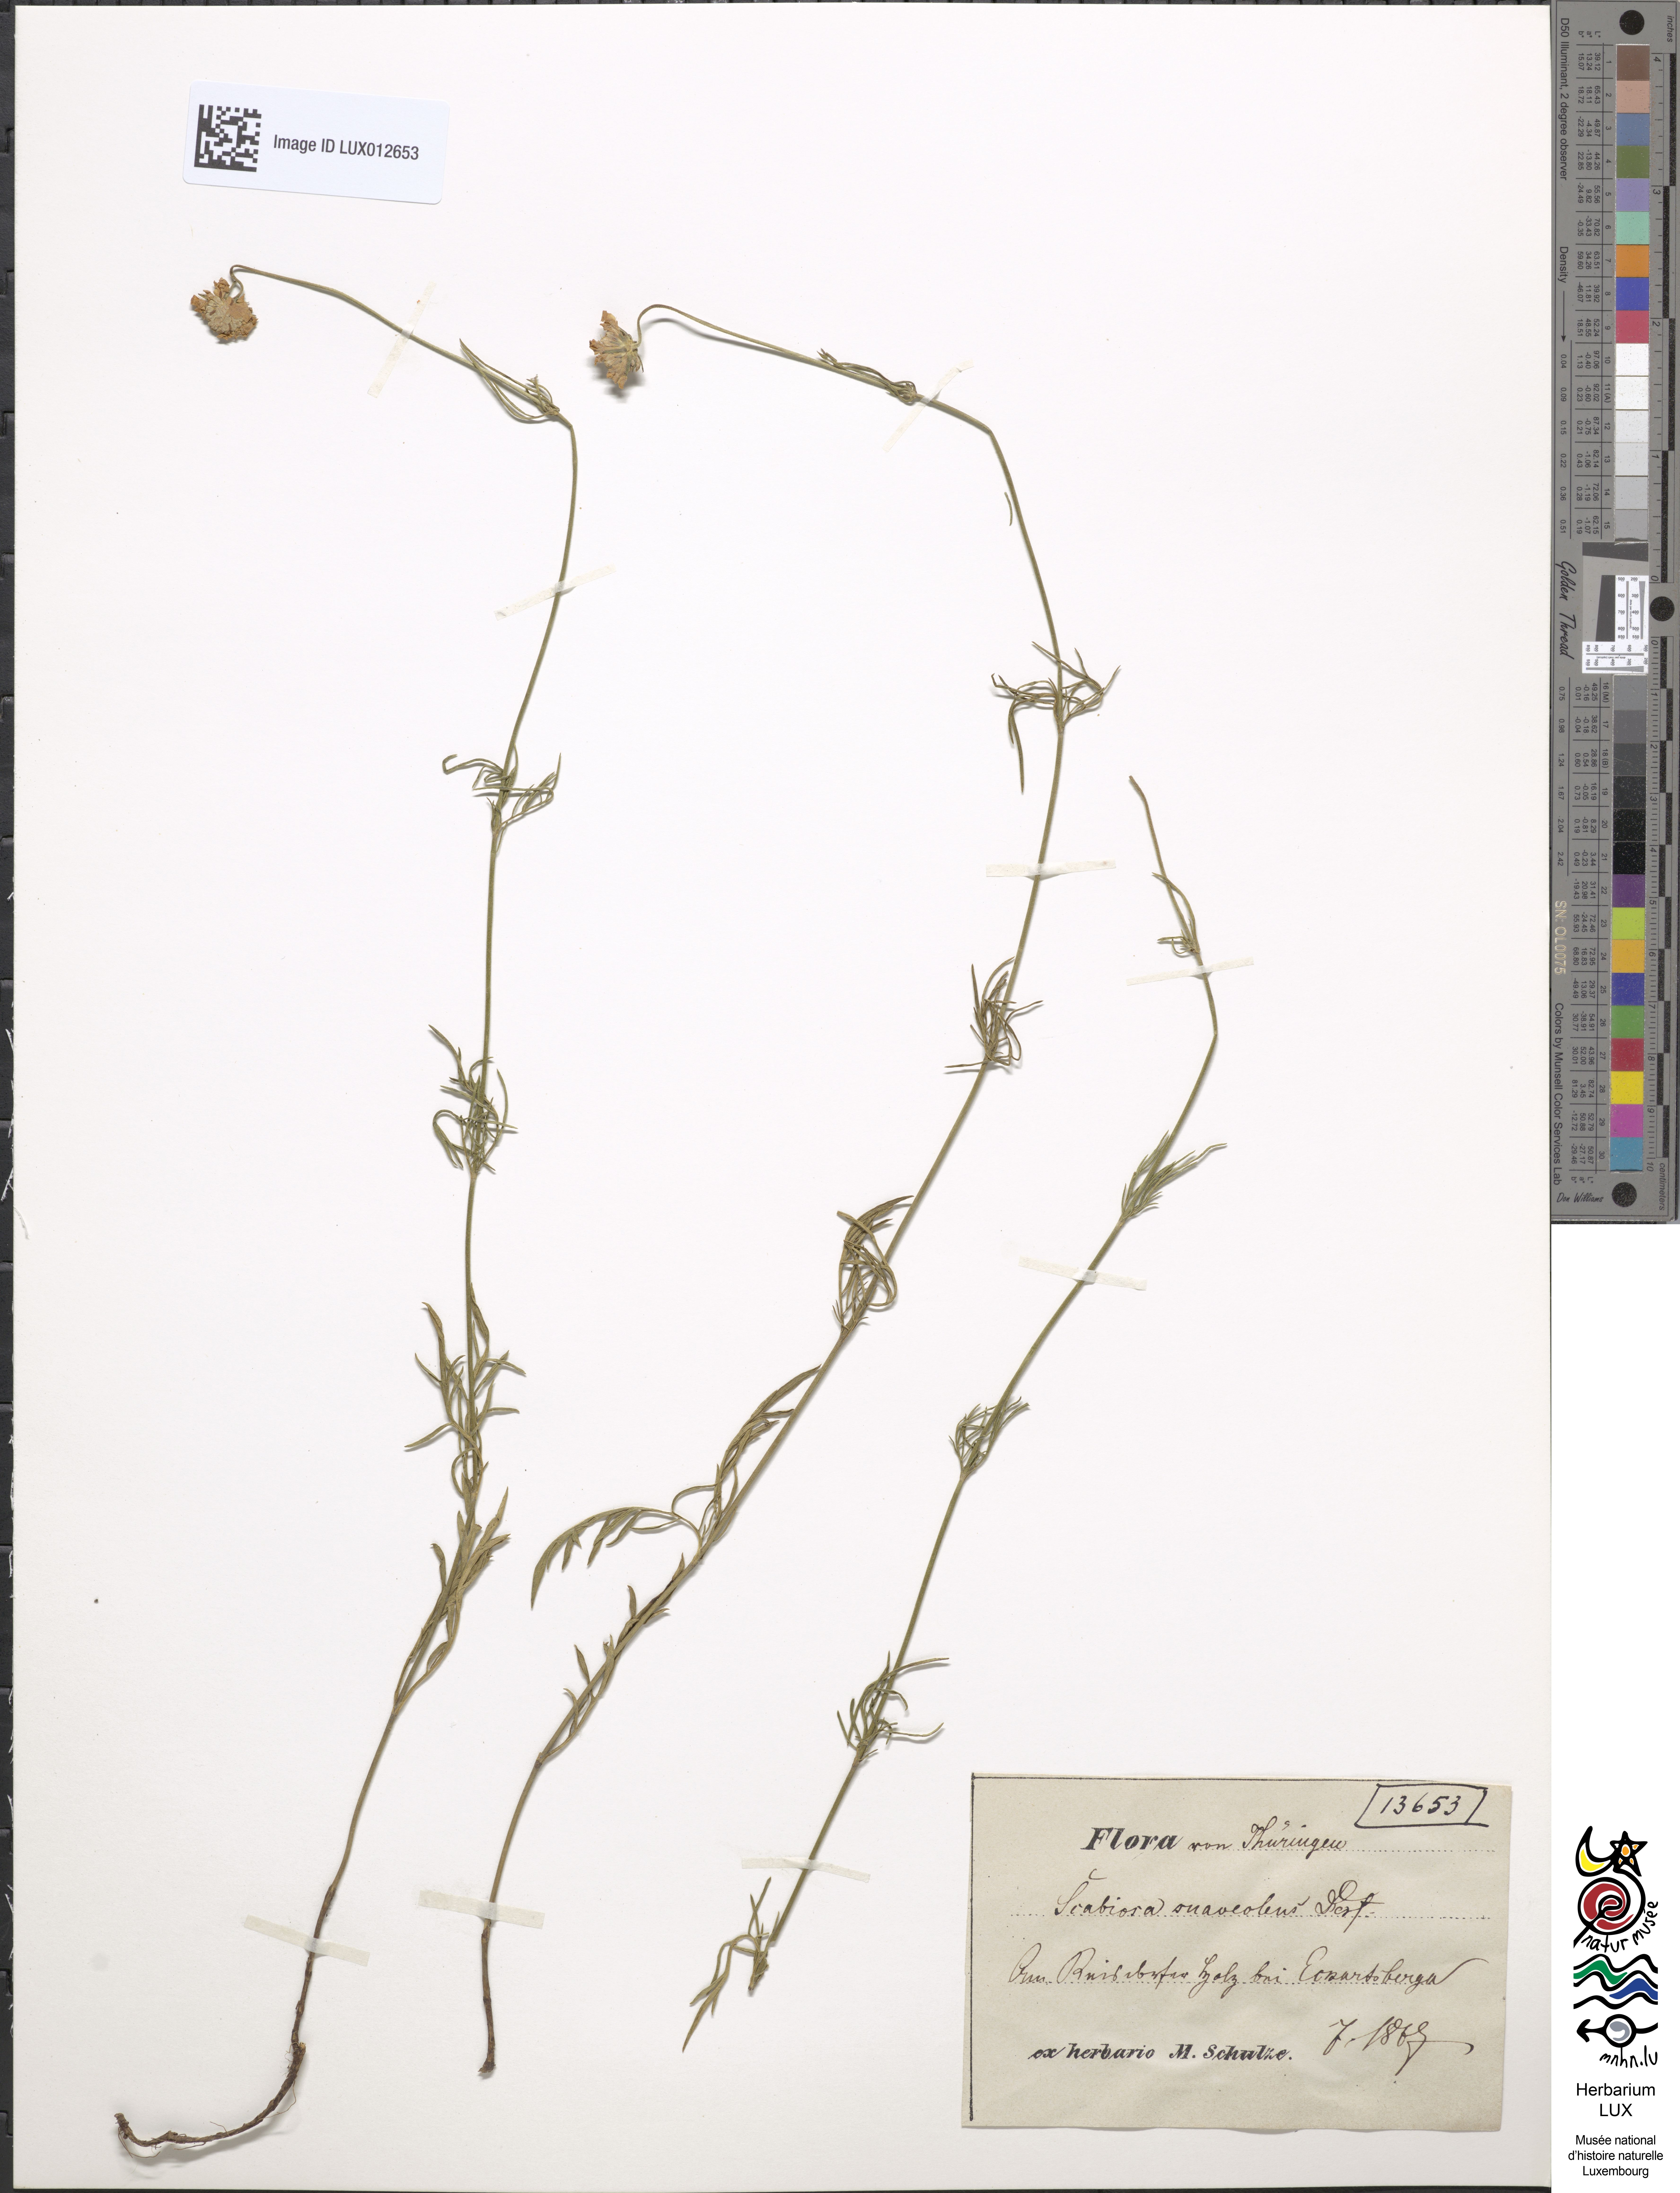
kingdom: Plantae
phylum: Tracheophyta
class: Magnoliopsida
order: Dipsacales
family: Caprifoliaceae
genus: Scabiosa
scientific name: Scabiosa canescens
